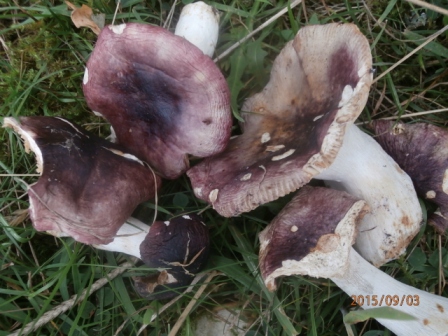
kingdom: Fungi
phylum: Basidiomycota
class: Agaricomycetes
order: Russulales
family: Russulaceae
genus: Russula
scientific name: Russula atropurpurea
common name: purpurbroget skørhat
